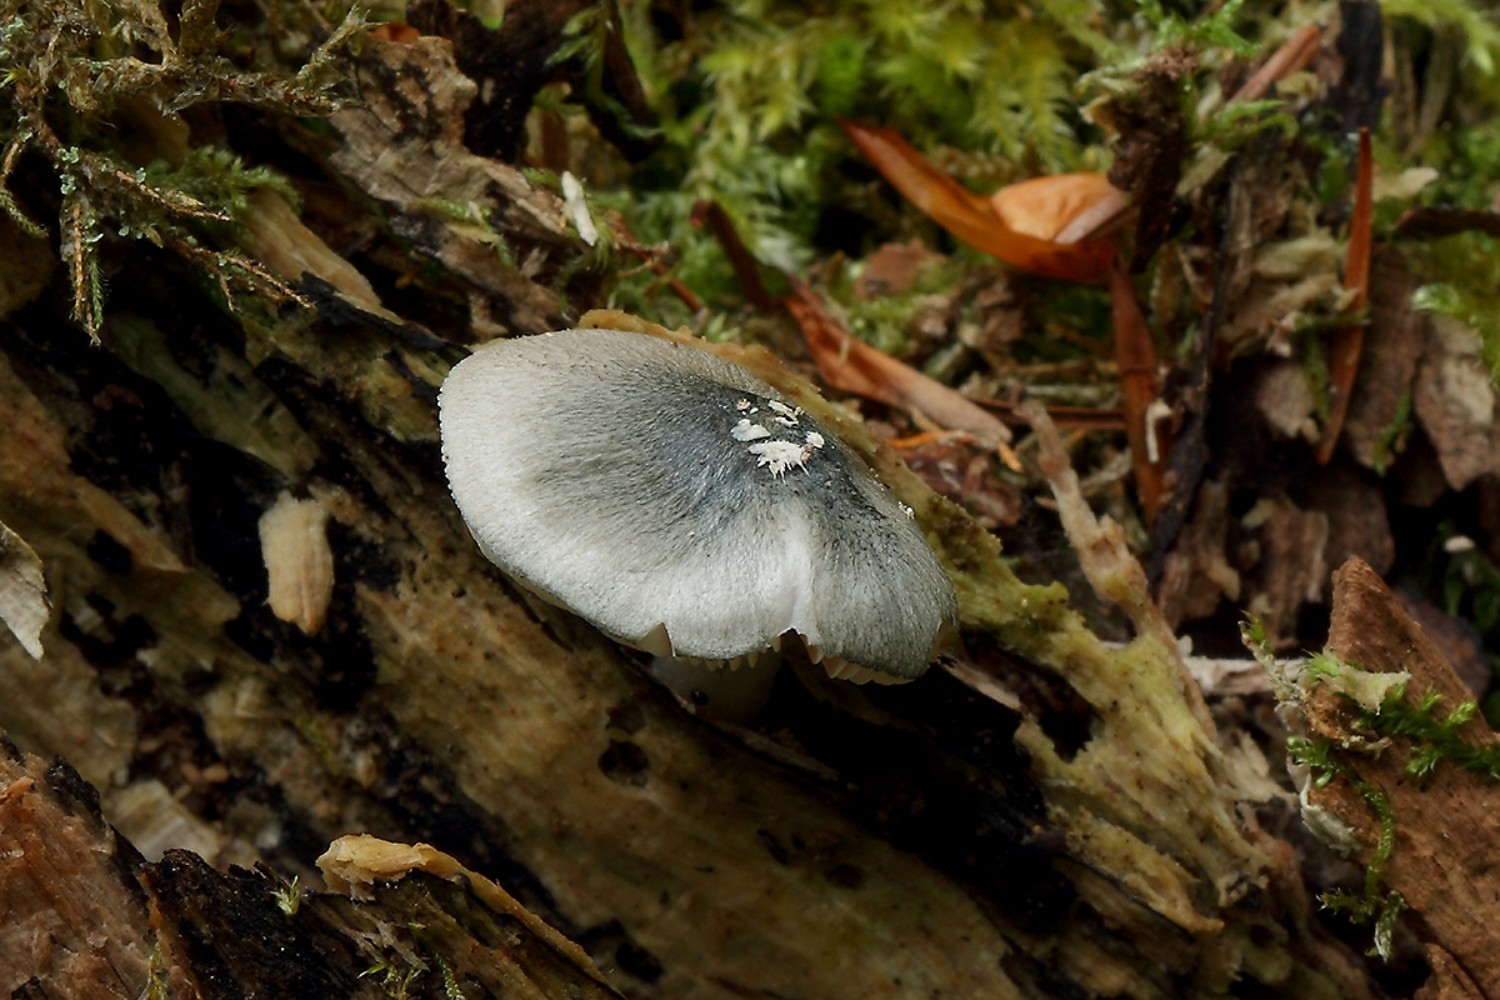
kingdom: Fungi
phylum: Basidiomycota
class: Agaricomycetes
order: Agaricales
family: Pluteaceae
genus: Pluteus
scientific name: Pluteus salicinus
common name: stiv skærmhat
